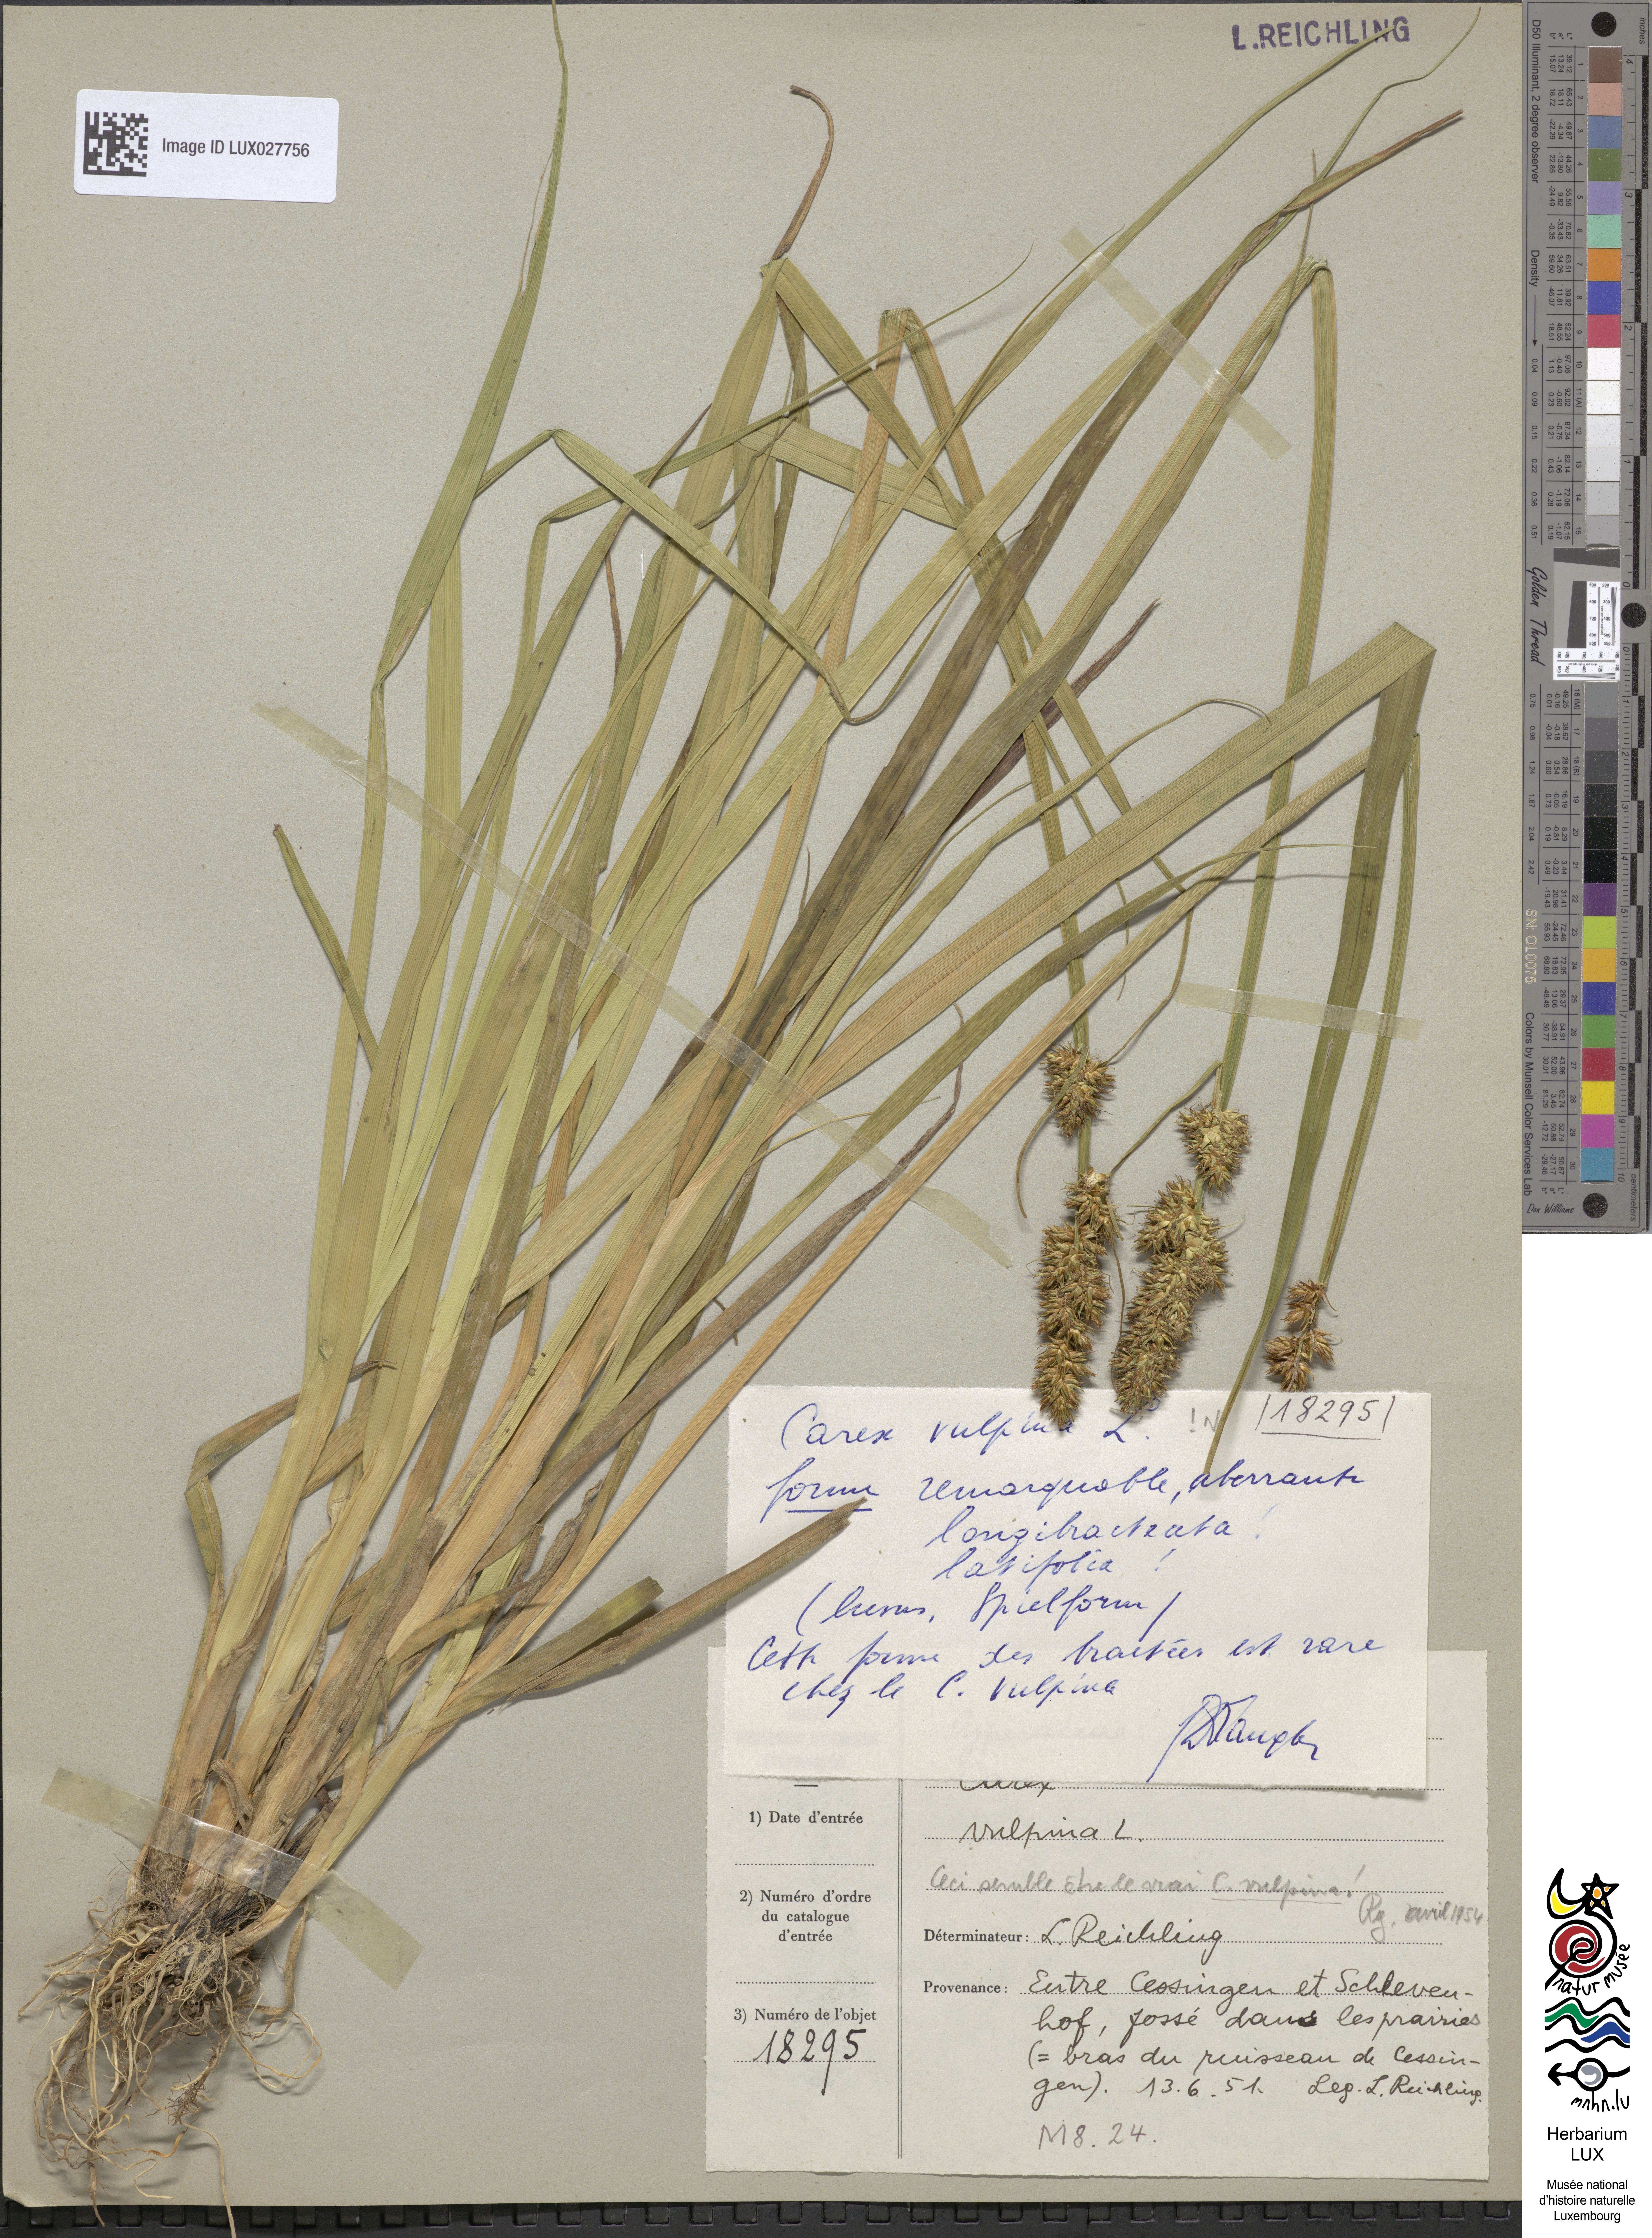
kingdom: Plantae
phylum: Tracheophyta
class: Liliopsida
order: Poales
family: Cyperaceae
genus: Carex
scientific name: Carex vulpina
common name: True fox-sedge
